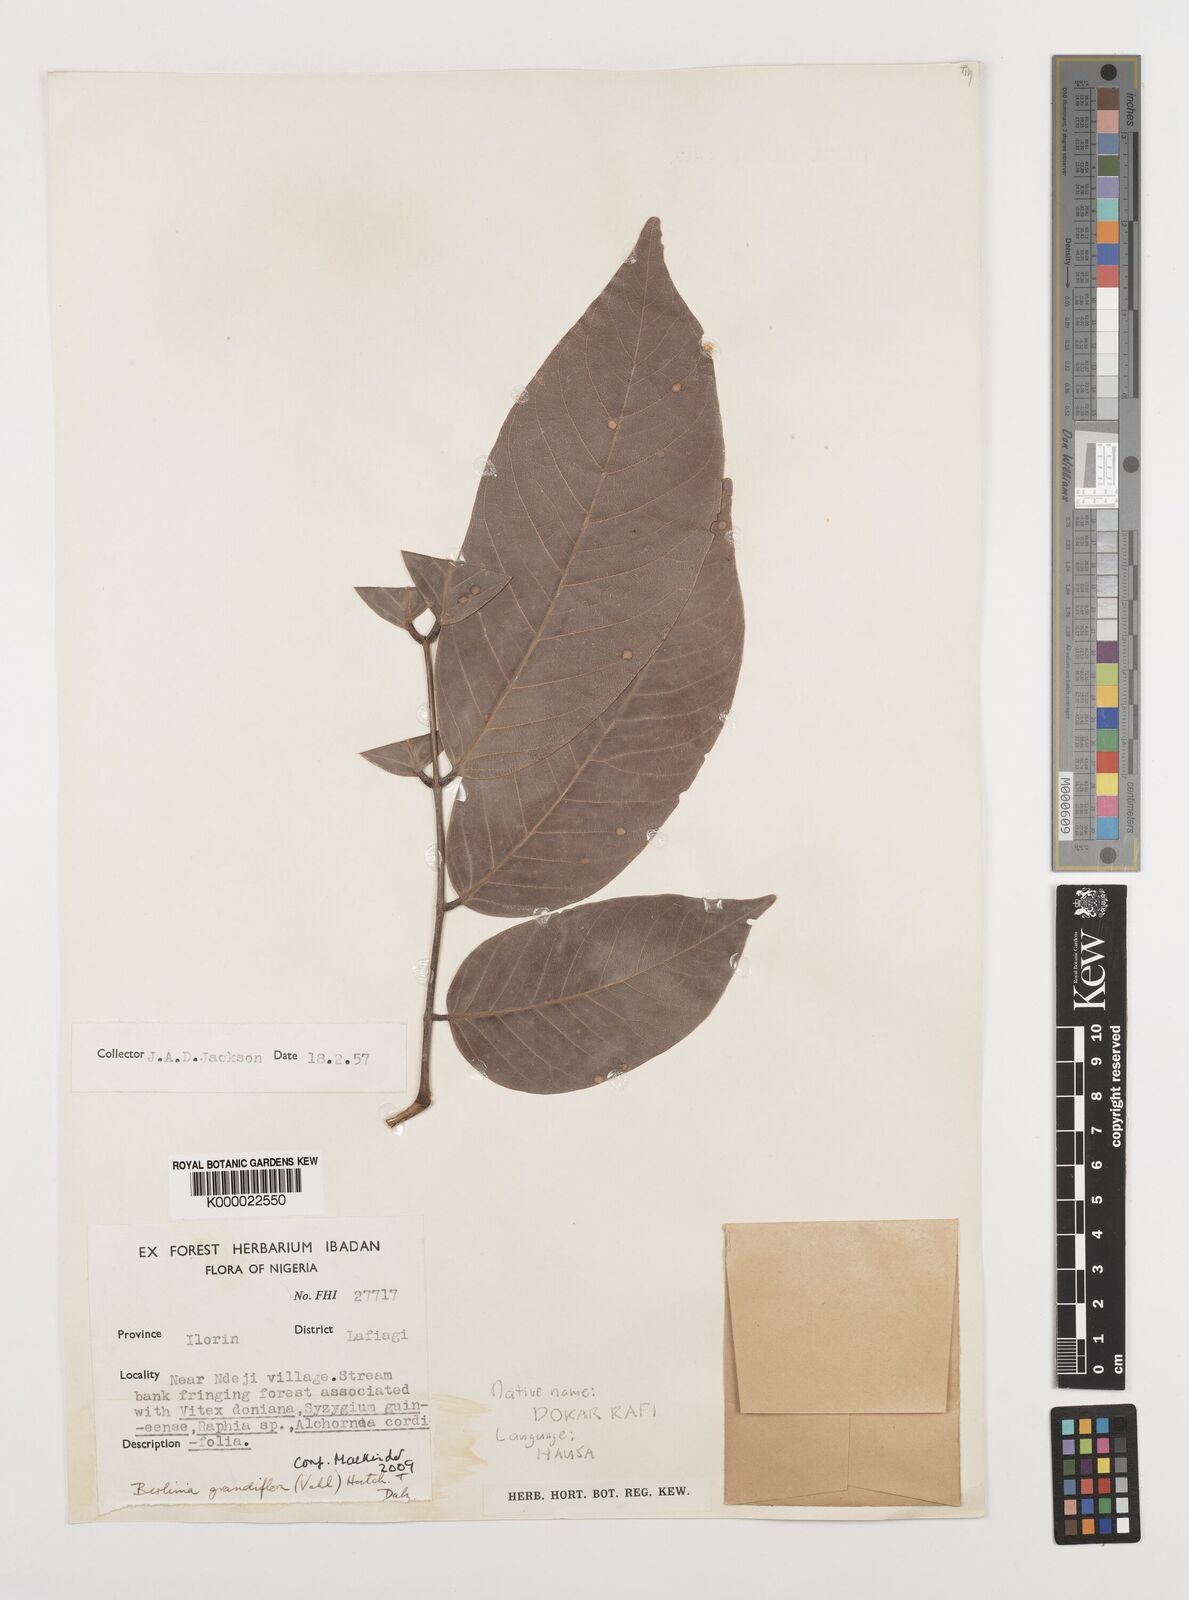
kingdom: Plantae
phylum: Tracheophyta
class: Magnoliopsida
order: Fabales
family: Fabaceae
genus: Berlinia
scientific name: Berlinia grandiflora
